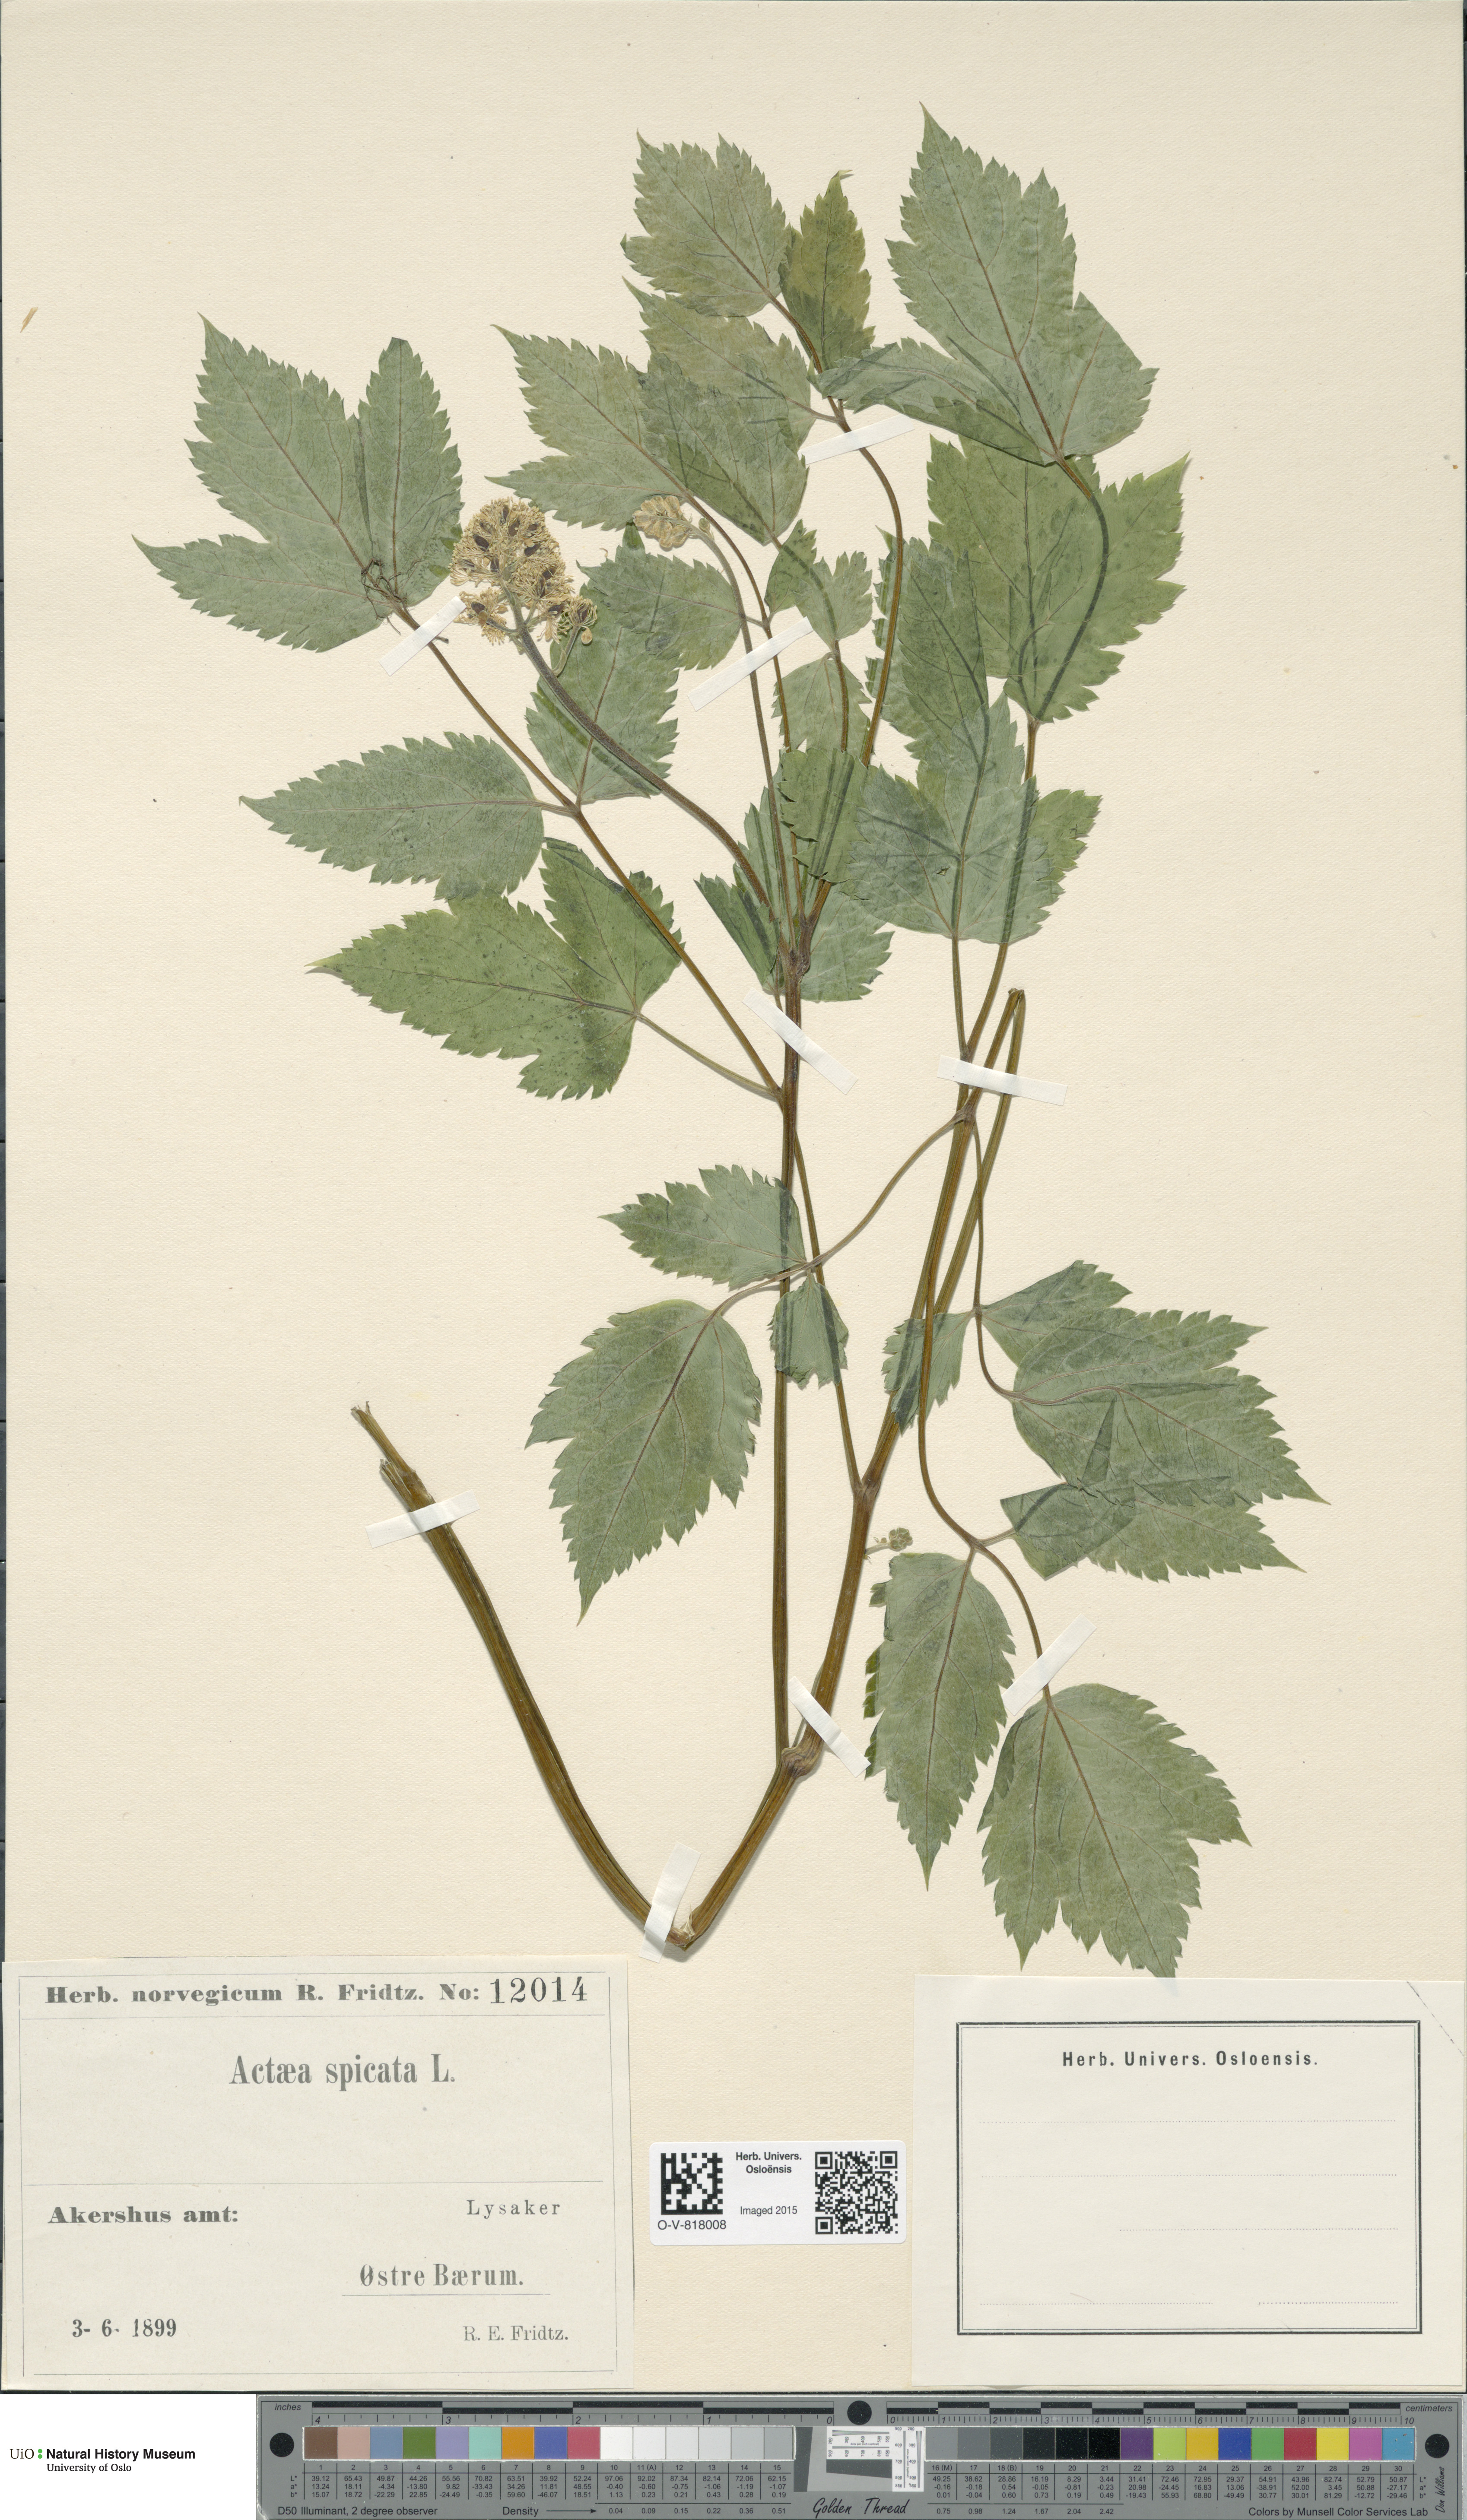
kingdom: Plantae
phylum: Tracheophyta
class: Magnoliopsida
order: Ranunculales
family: Ranunculaceae
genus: Actaea
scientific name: Actaea spicata
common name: Baneberry
